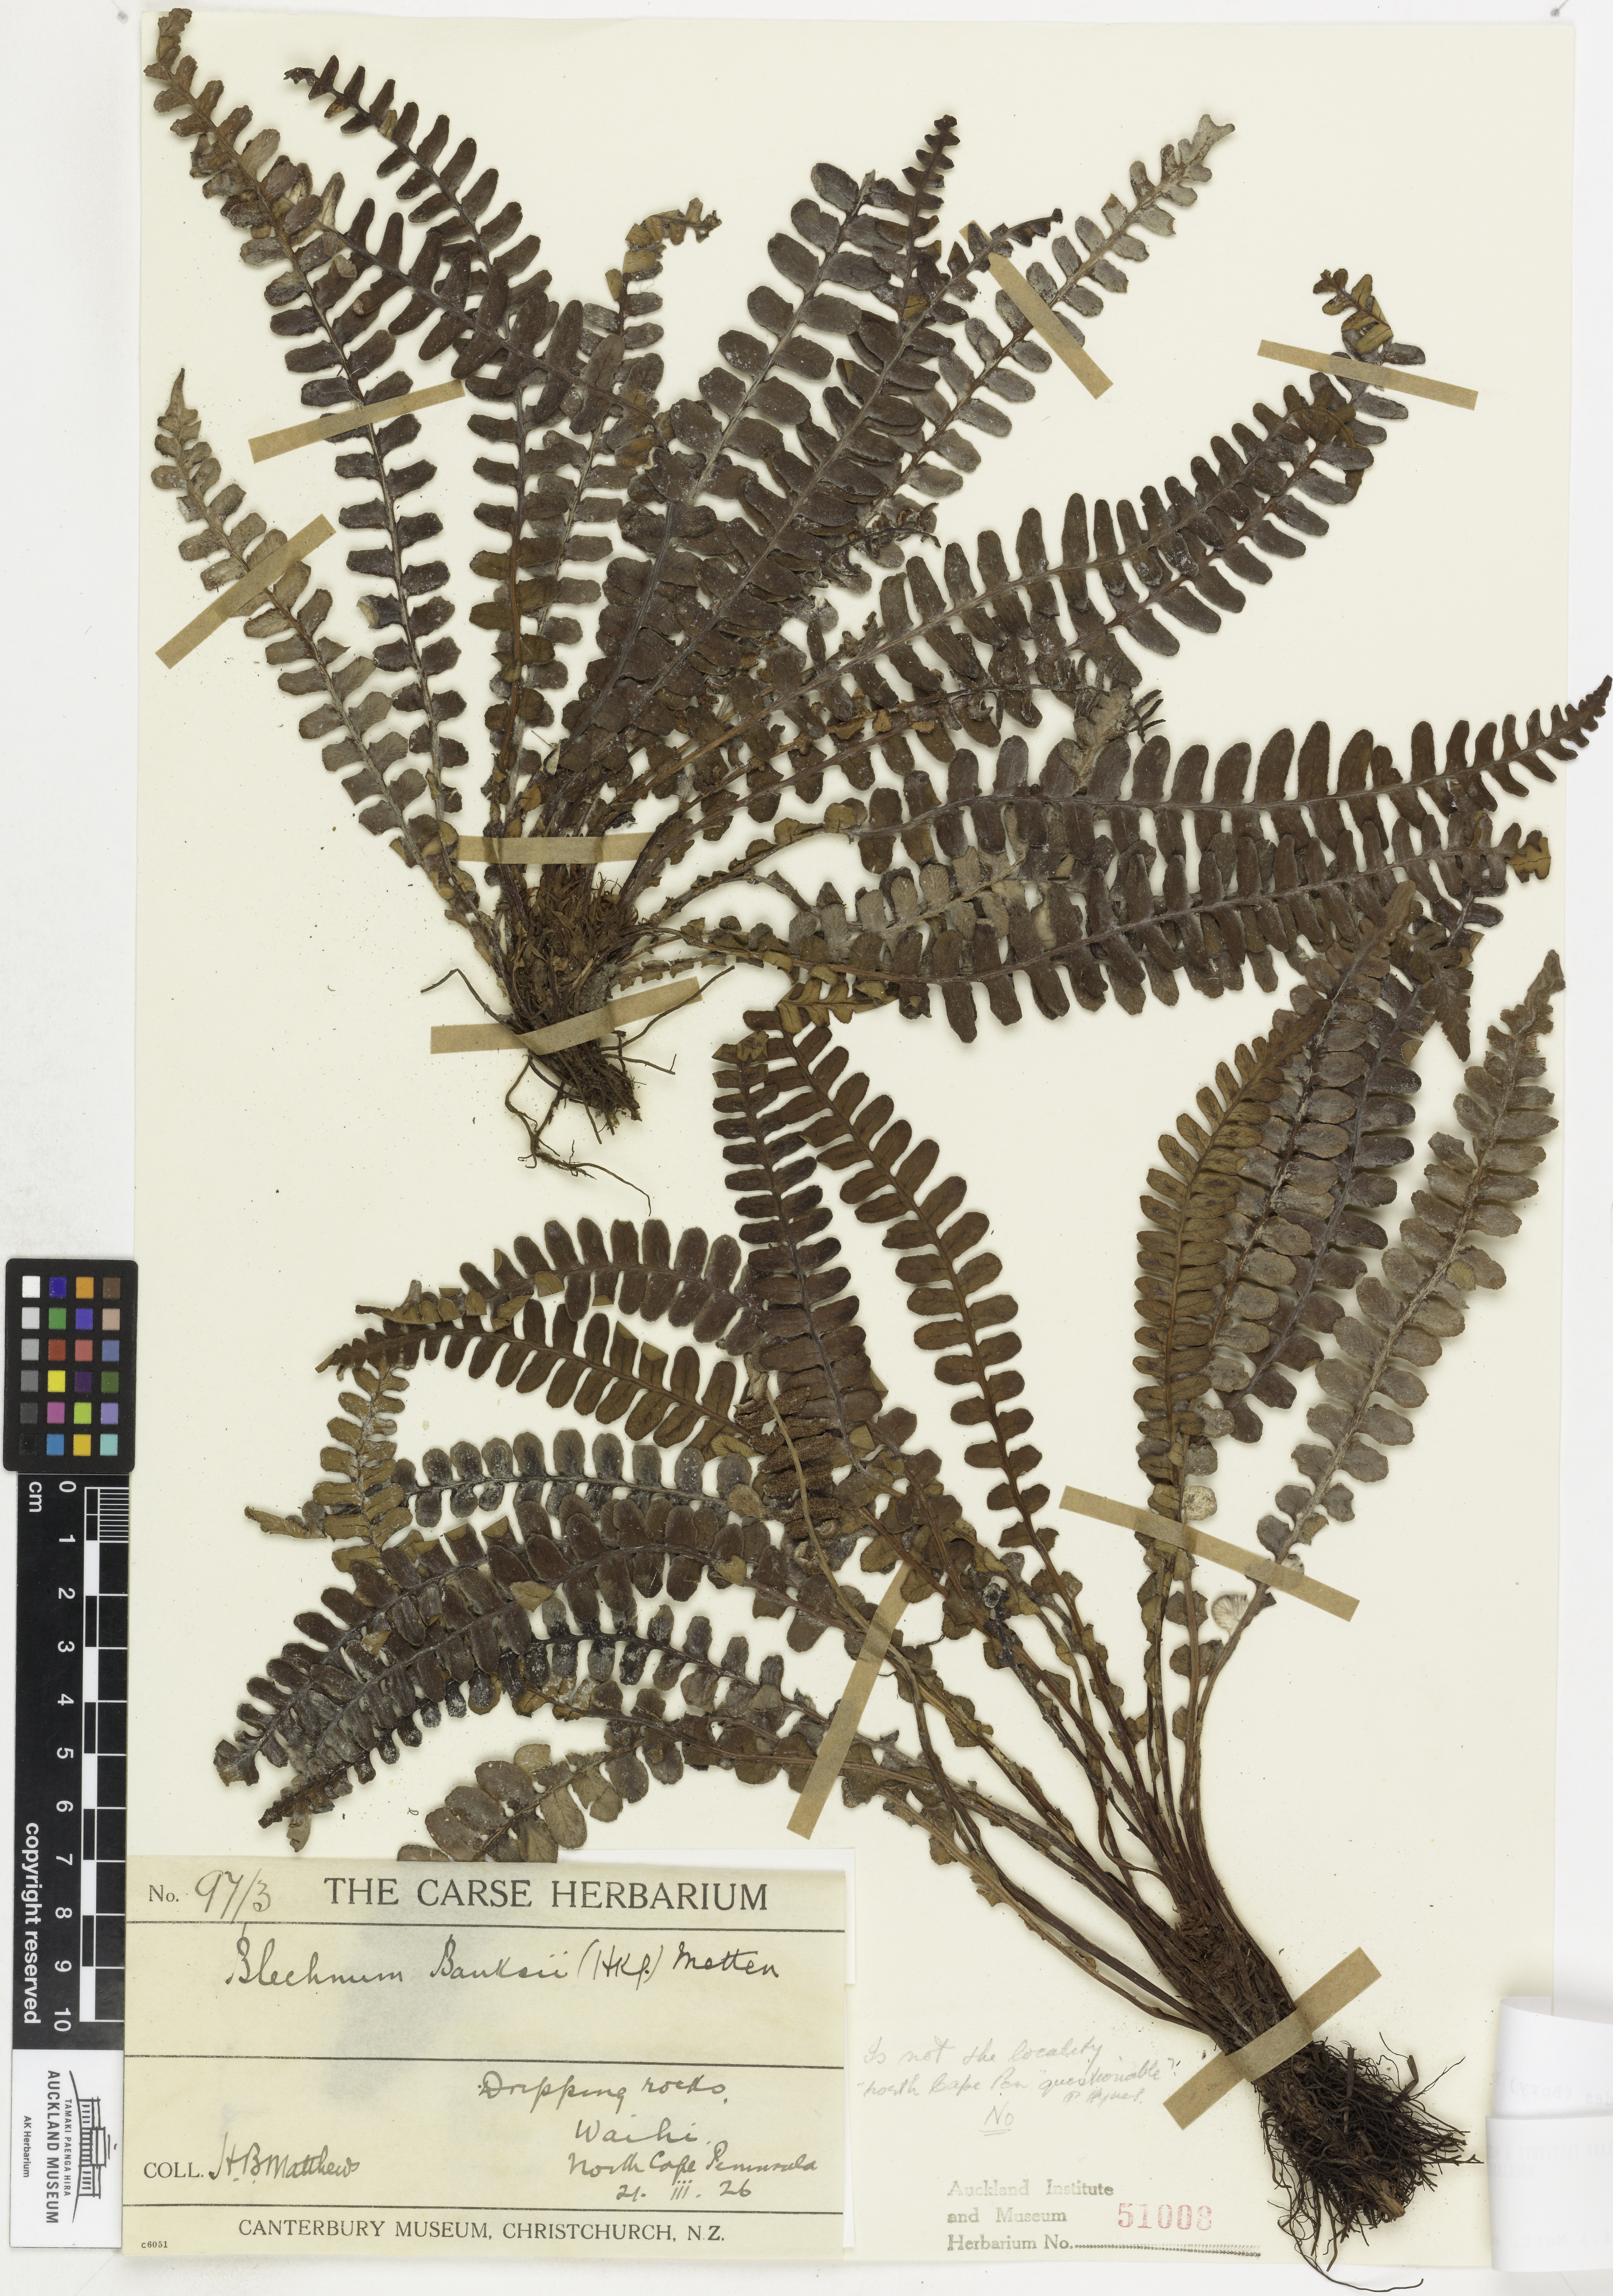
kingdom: Plantae
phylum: Tracheophyta
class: Polypodiopsida
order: Polypodiales
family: Blechnaceae
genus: Austroblechnum
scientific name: Austroblechnum leyboldtianum
